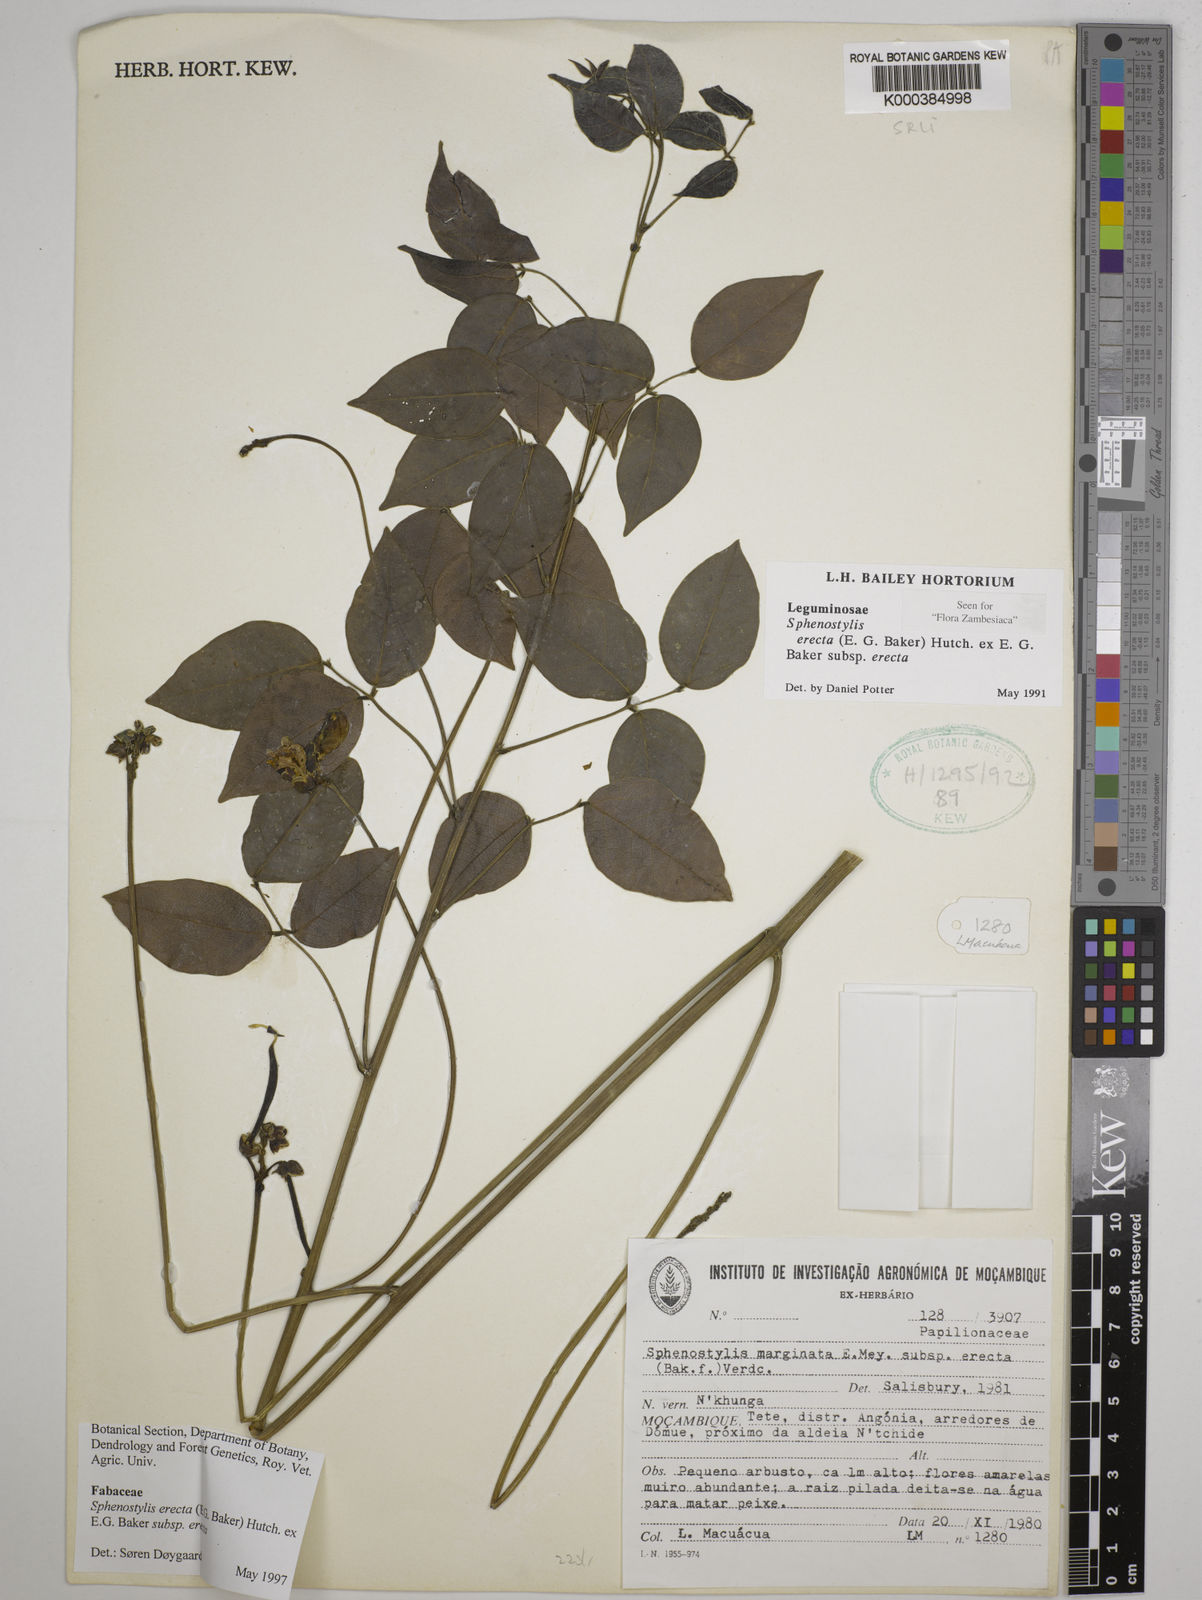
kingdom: Plantae
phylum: Tracheophyta
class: Magnoliopsida
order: Fabales
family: Fabaceae
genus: Sphenostylis
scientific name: Sphenostylis erecta
